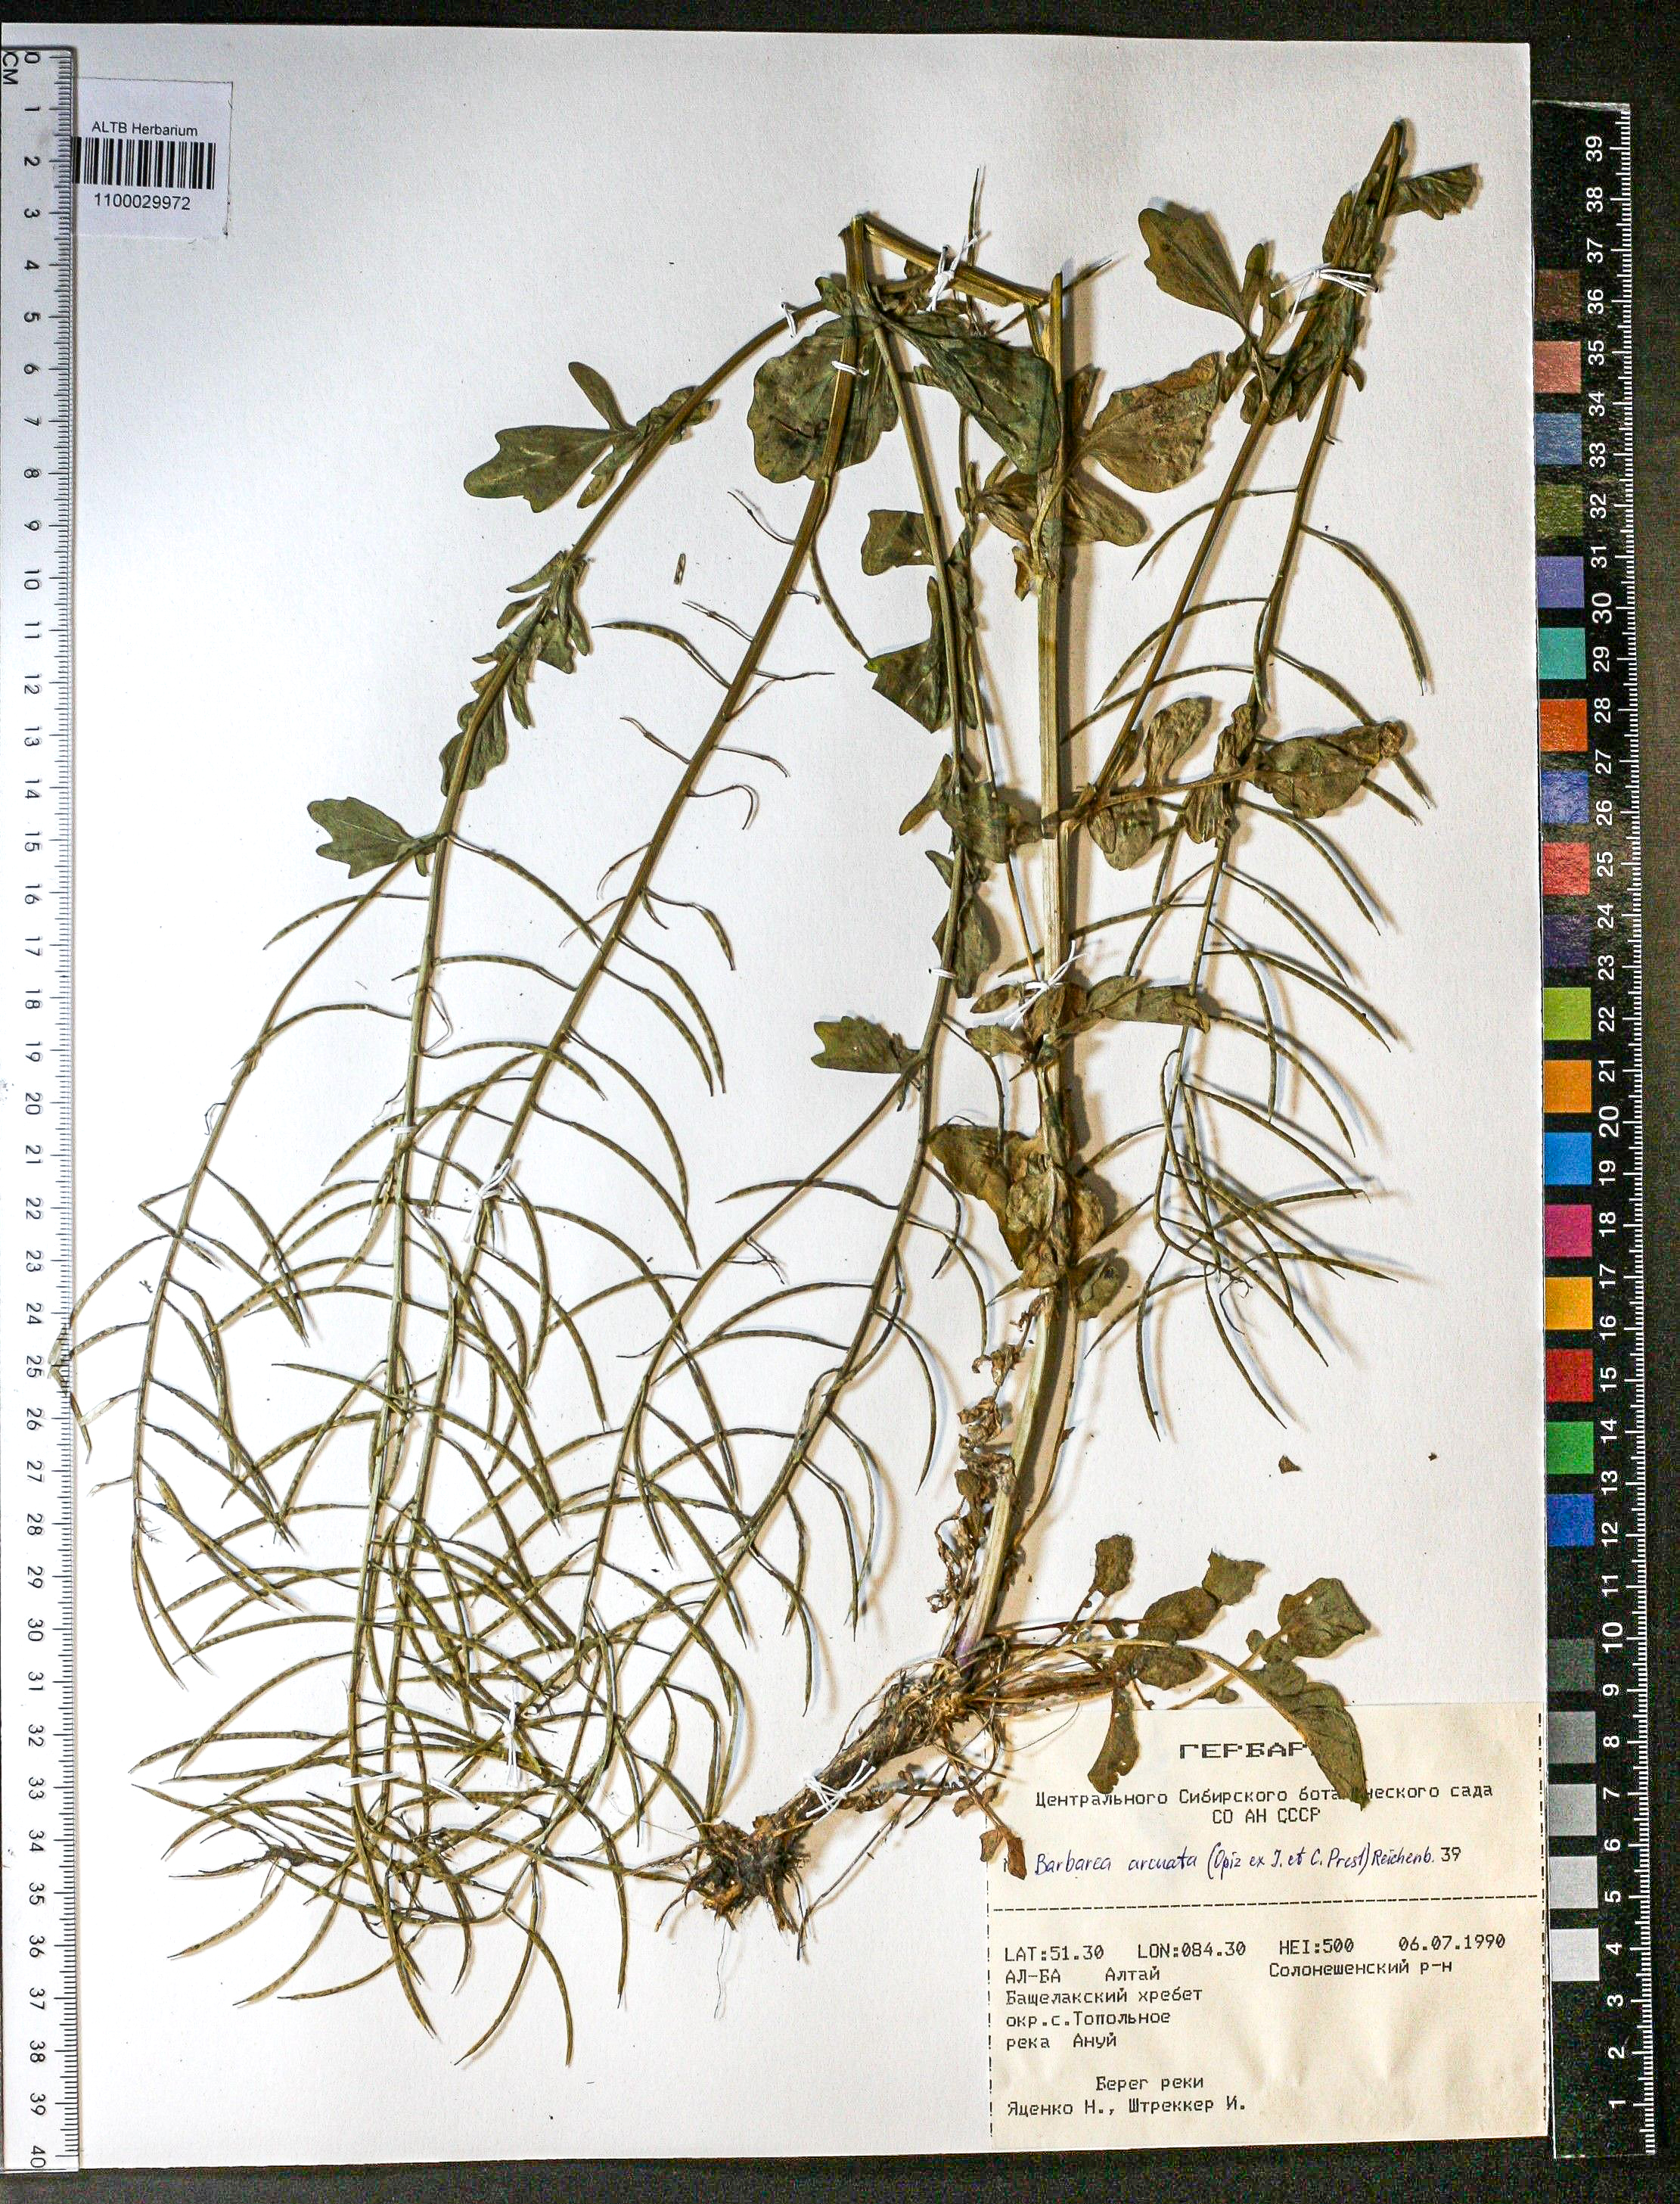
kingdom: Plantae
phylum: Tracheophyta
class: Magnoliopsida
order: Brassicales
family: Brassicaceae
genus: Barbarea
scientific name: Barbarea vulgaris
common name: Cressy-greens
